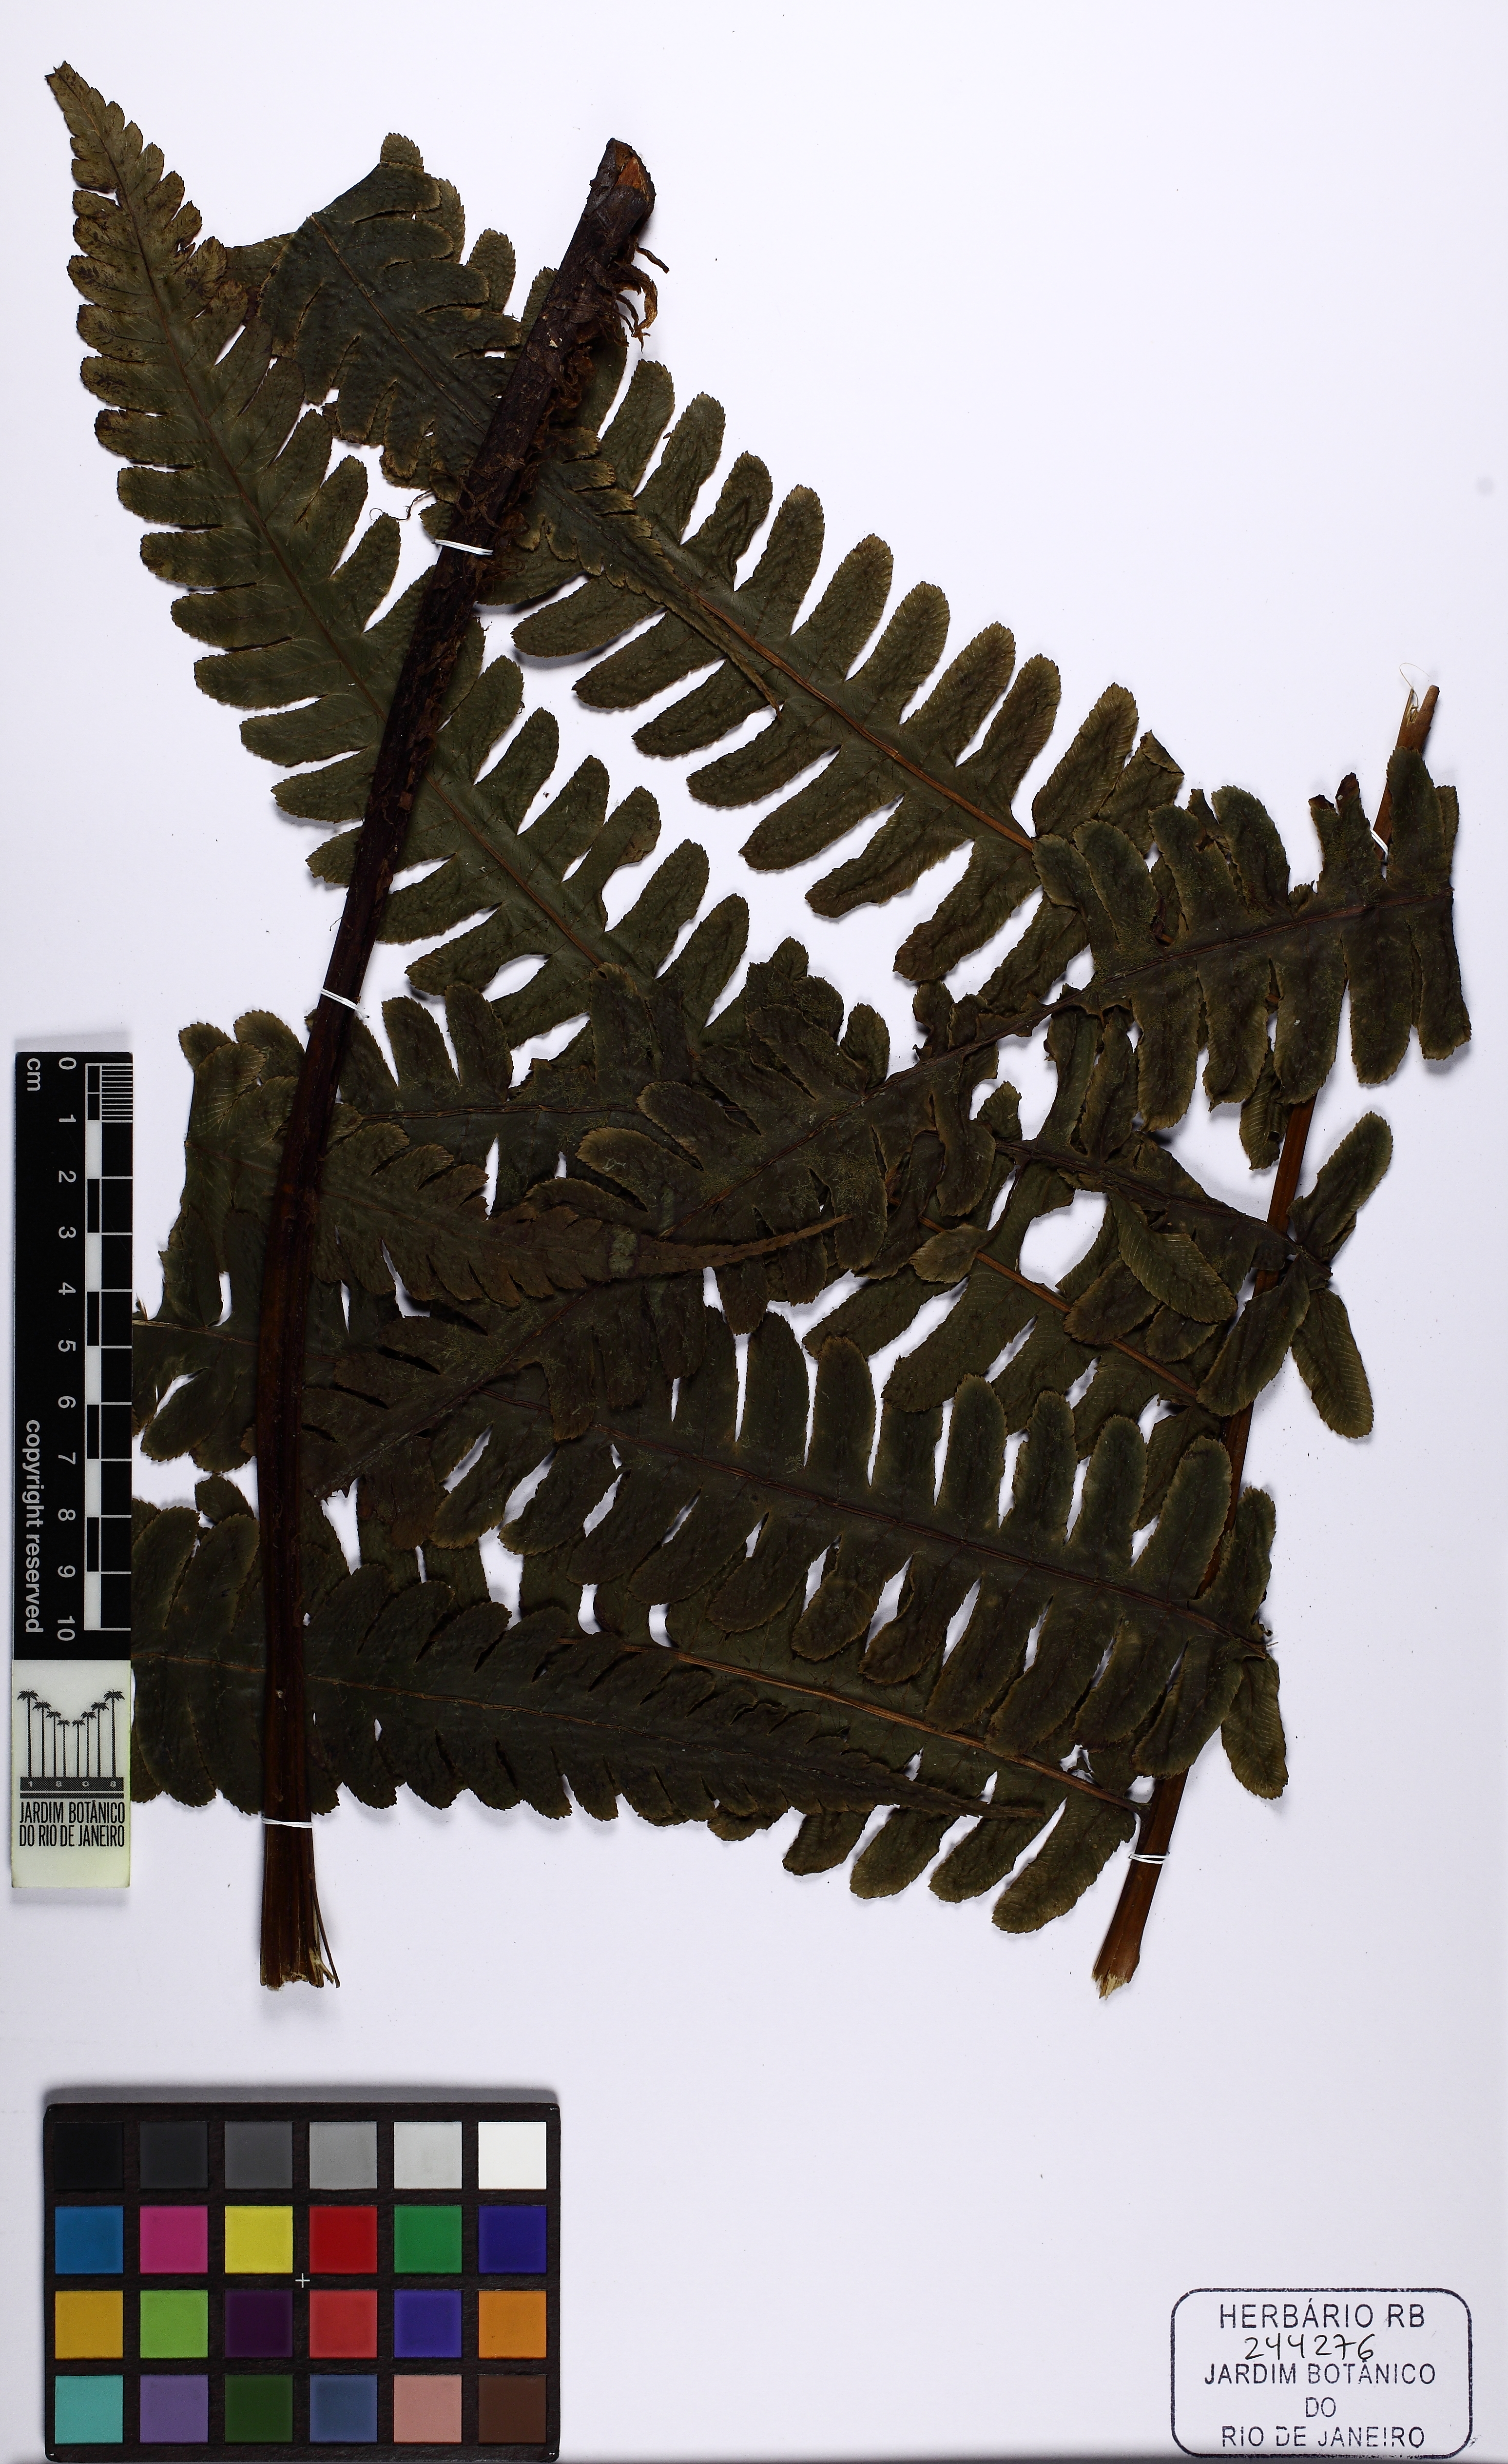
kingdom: Plantae
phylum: Tracheophyta
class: Polypodiopsida
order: Polypodiales
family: Athyriaceae
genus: Diplazium
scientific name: Diplazium lindbergii
